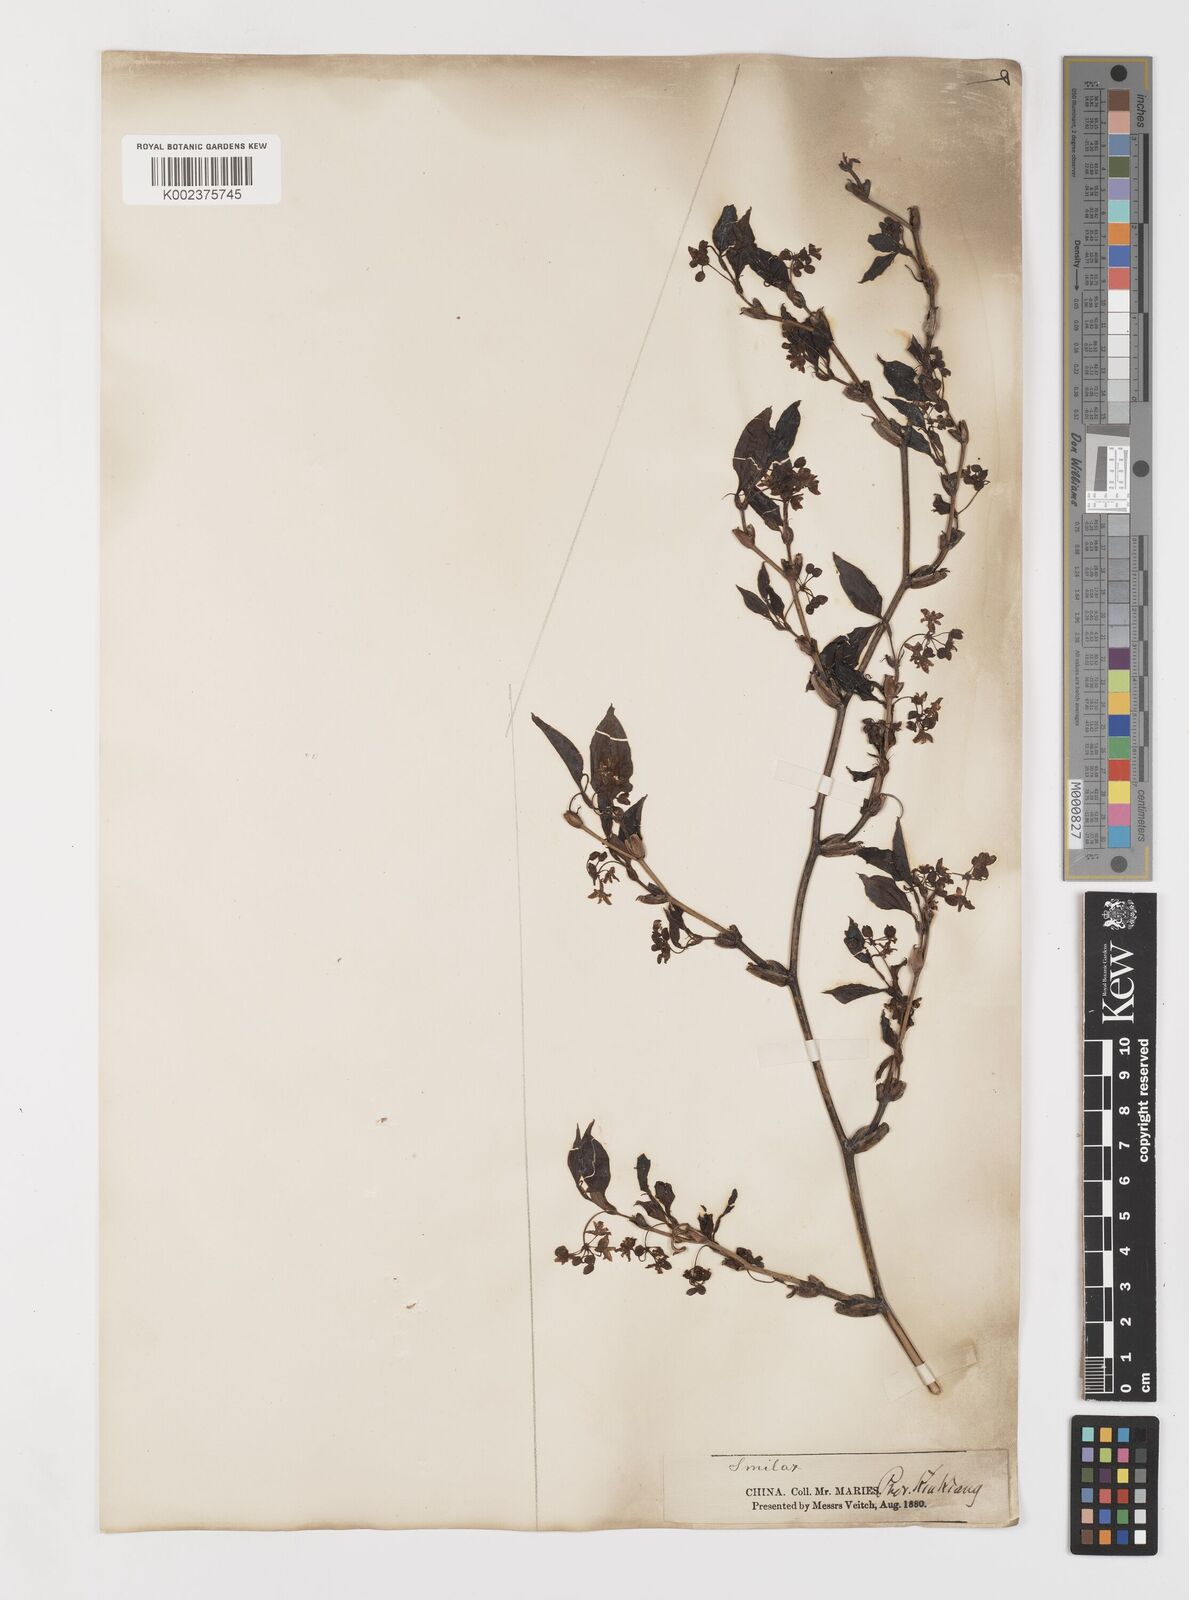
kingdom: Plantae
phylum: Tracheophyta
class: Liliopsida
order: Liliales
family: Smilacaceae
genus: Smilax
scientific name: Smilax china
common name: Chinaroot
